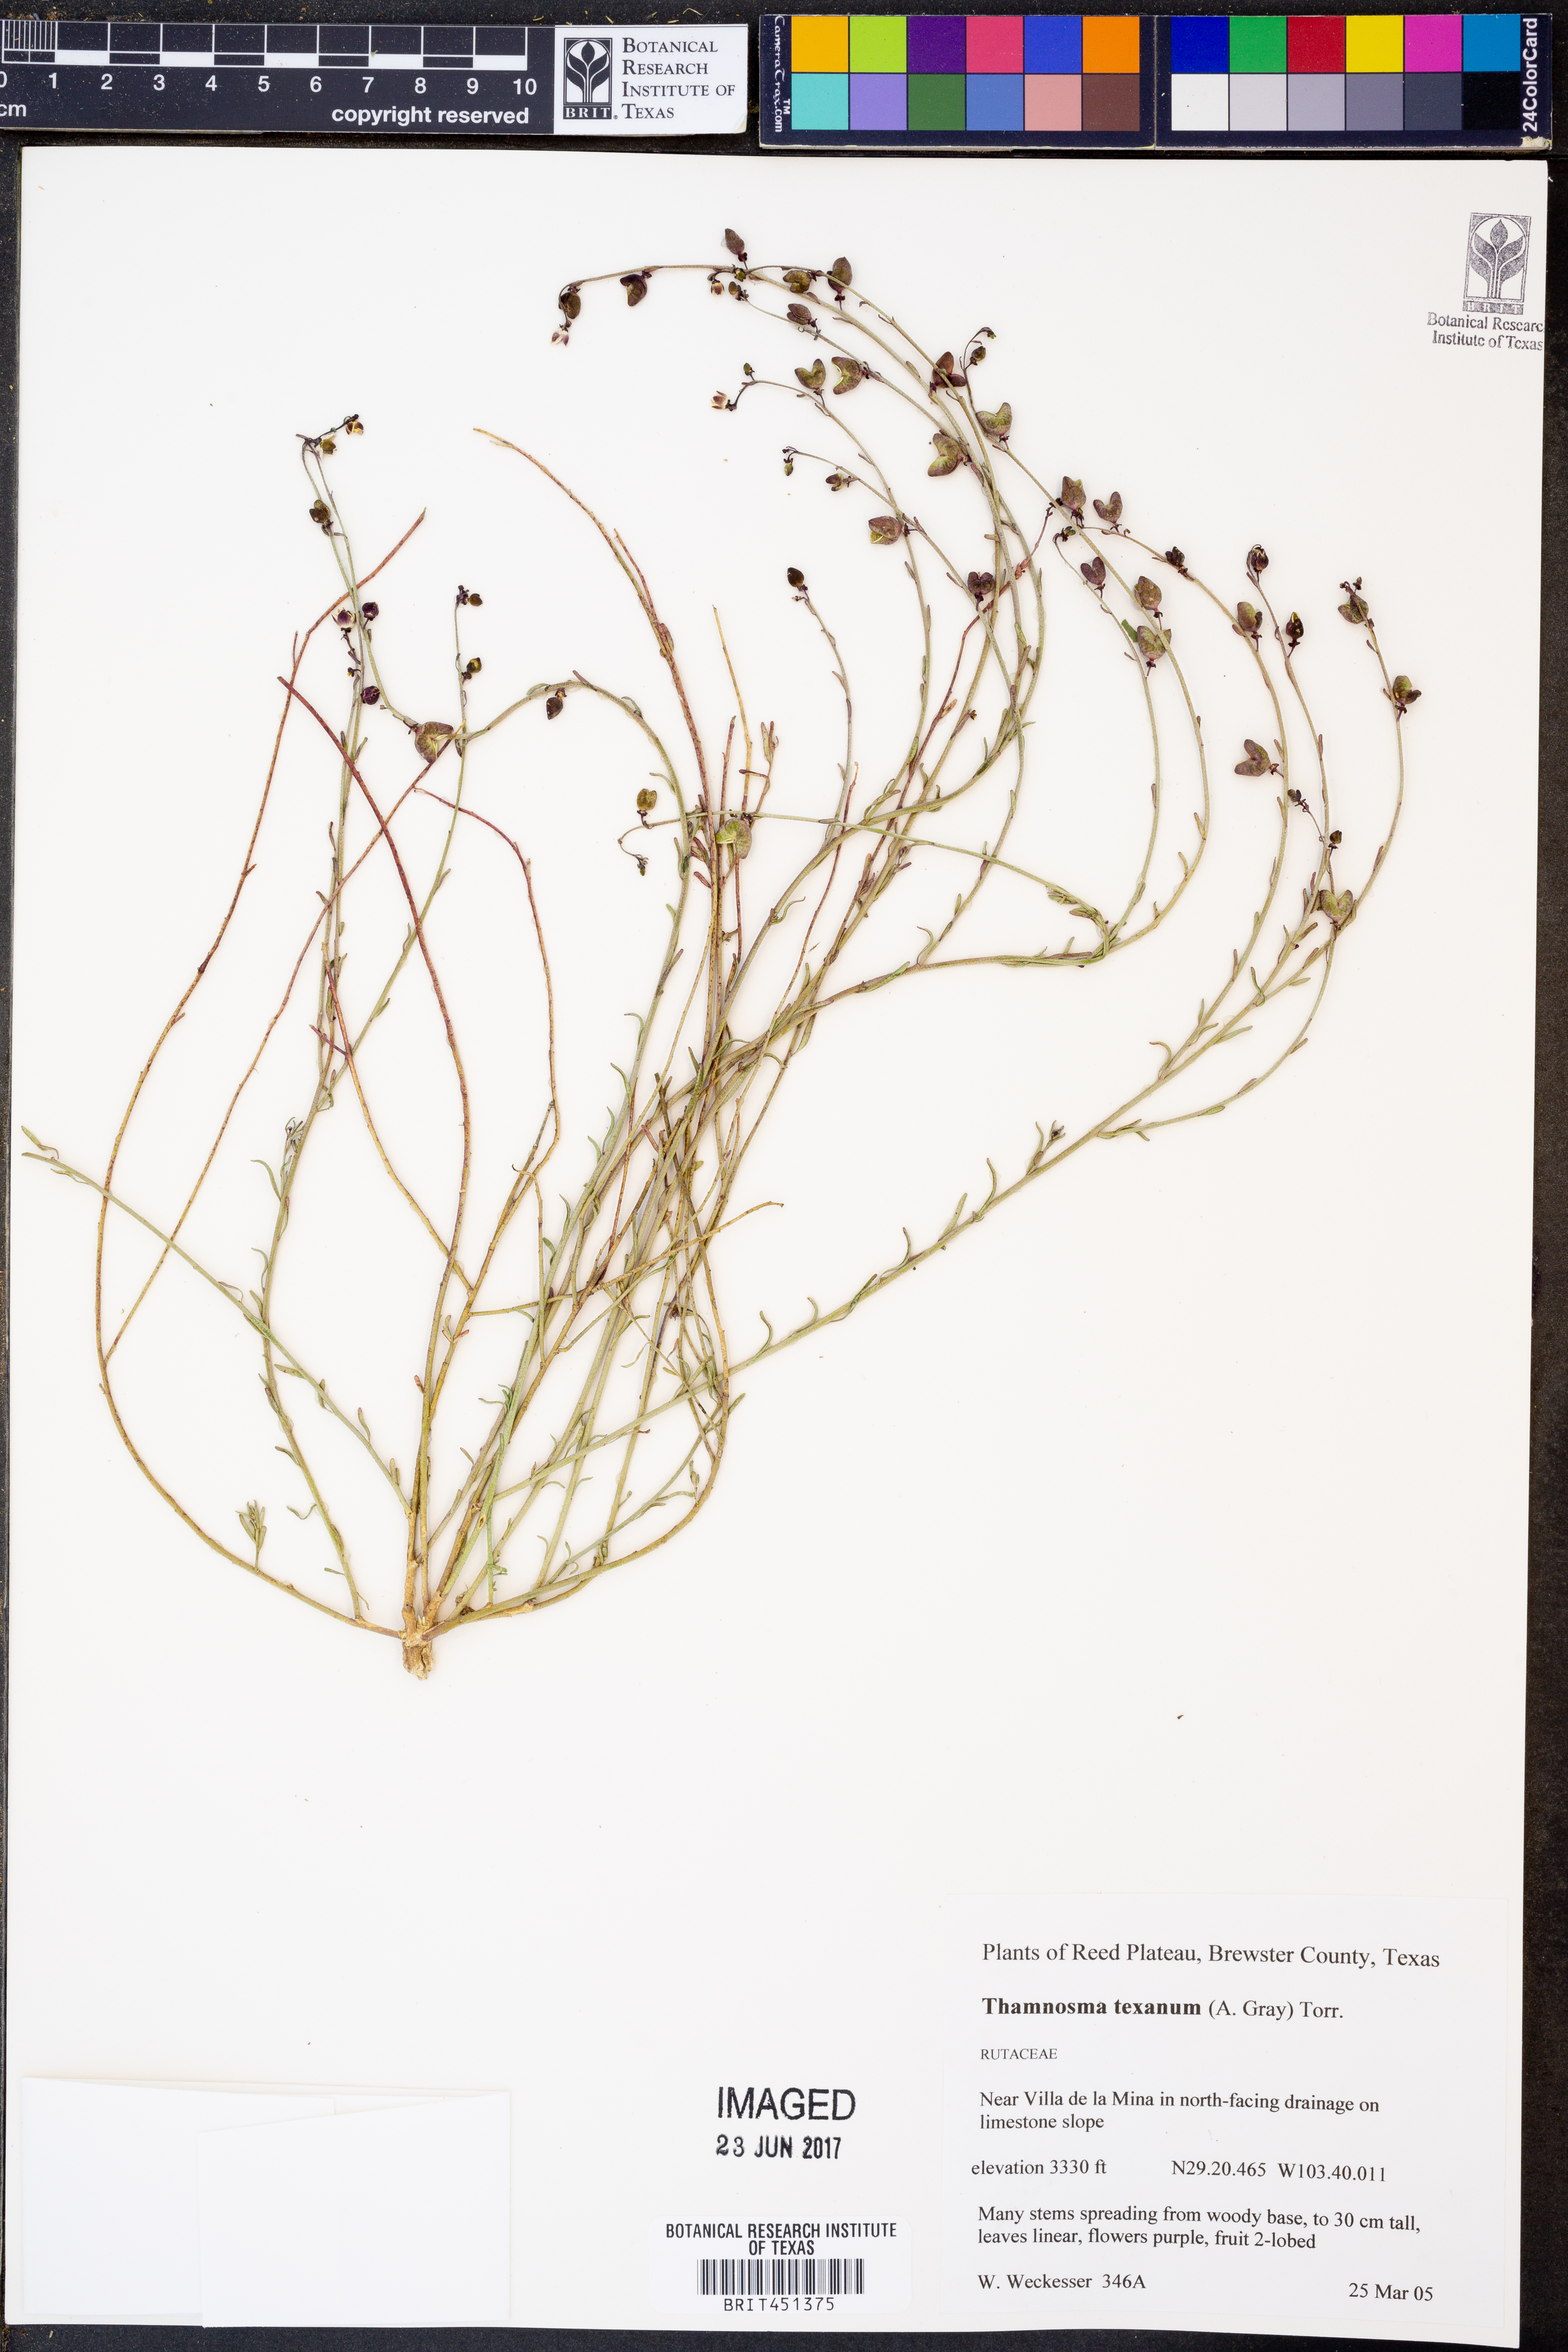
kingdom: Plantae
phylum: Tracheophyta
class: Magnoliopsida
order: Sapindales
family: Rutaceae
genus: Thamnosma
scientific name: Thamnosma texana
